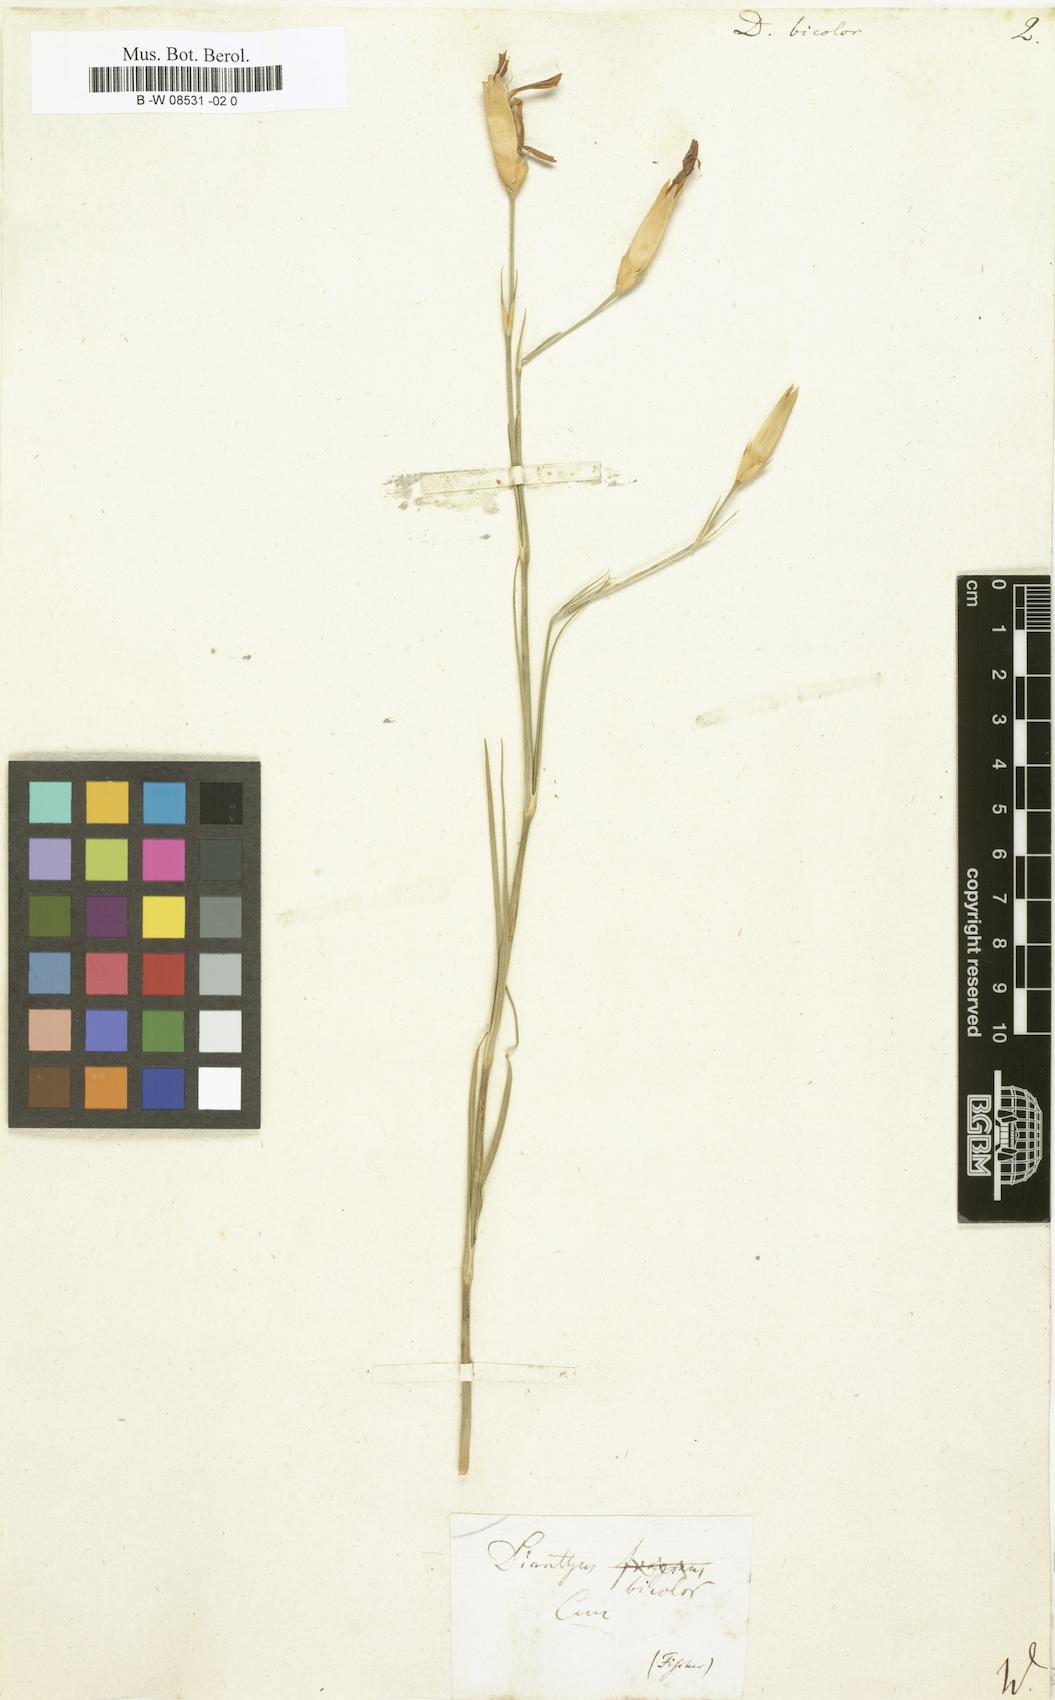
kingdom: Plantae
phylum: Tracheophyta
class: Magnoliopsida
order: Caryophyllales
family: Caryophyllaceae
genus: Dianthus
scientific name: Dianthus bicolor
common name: Bicolour pink
